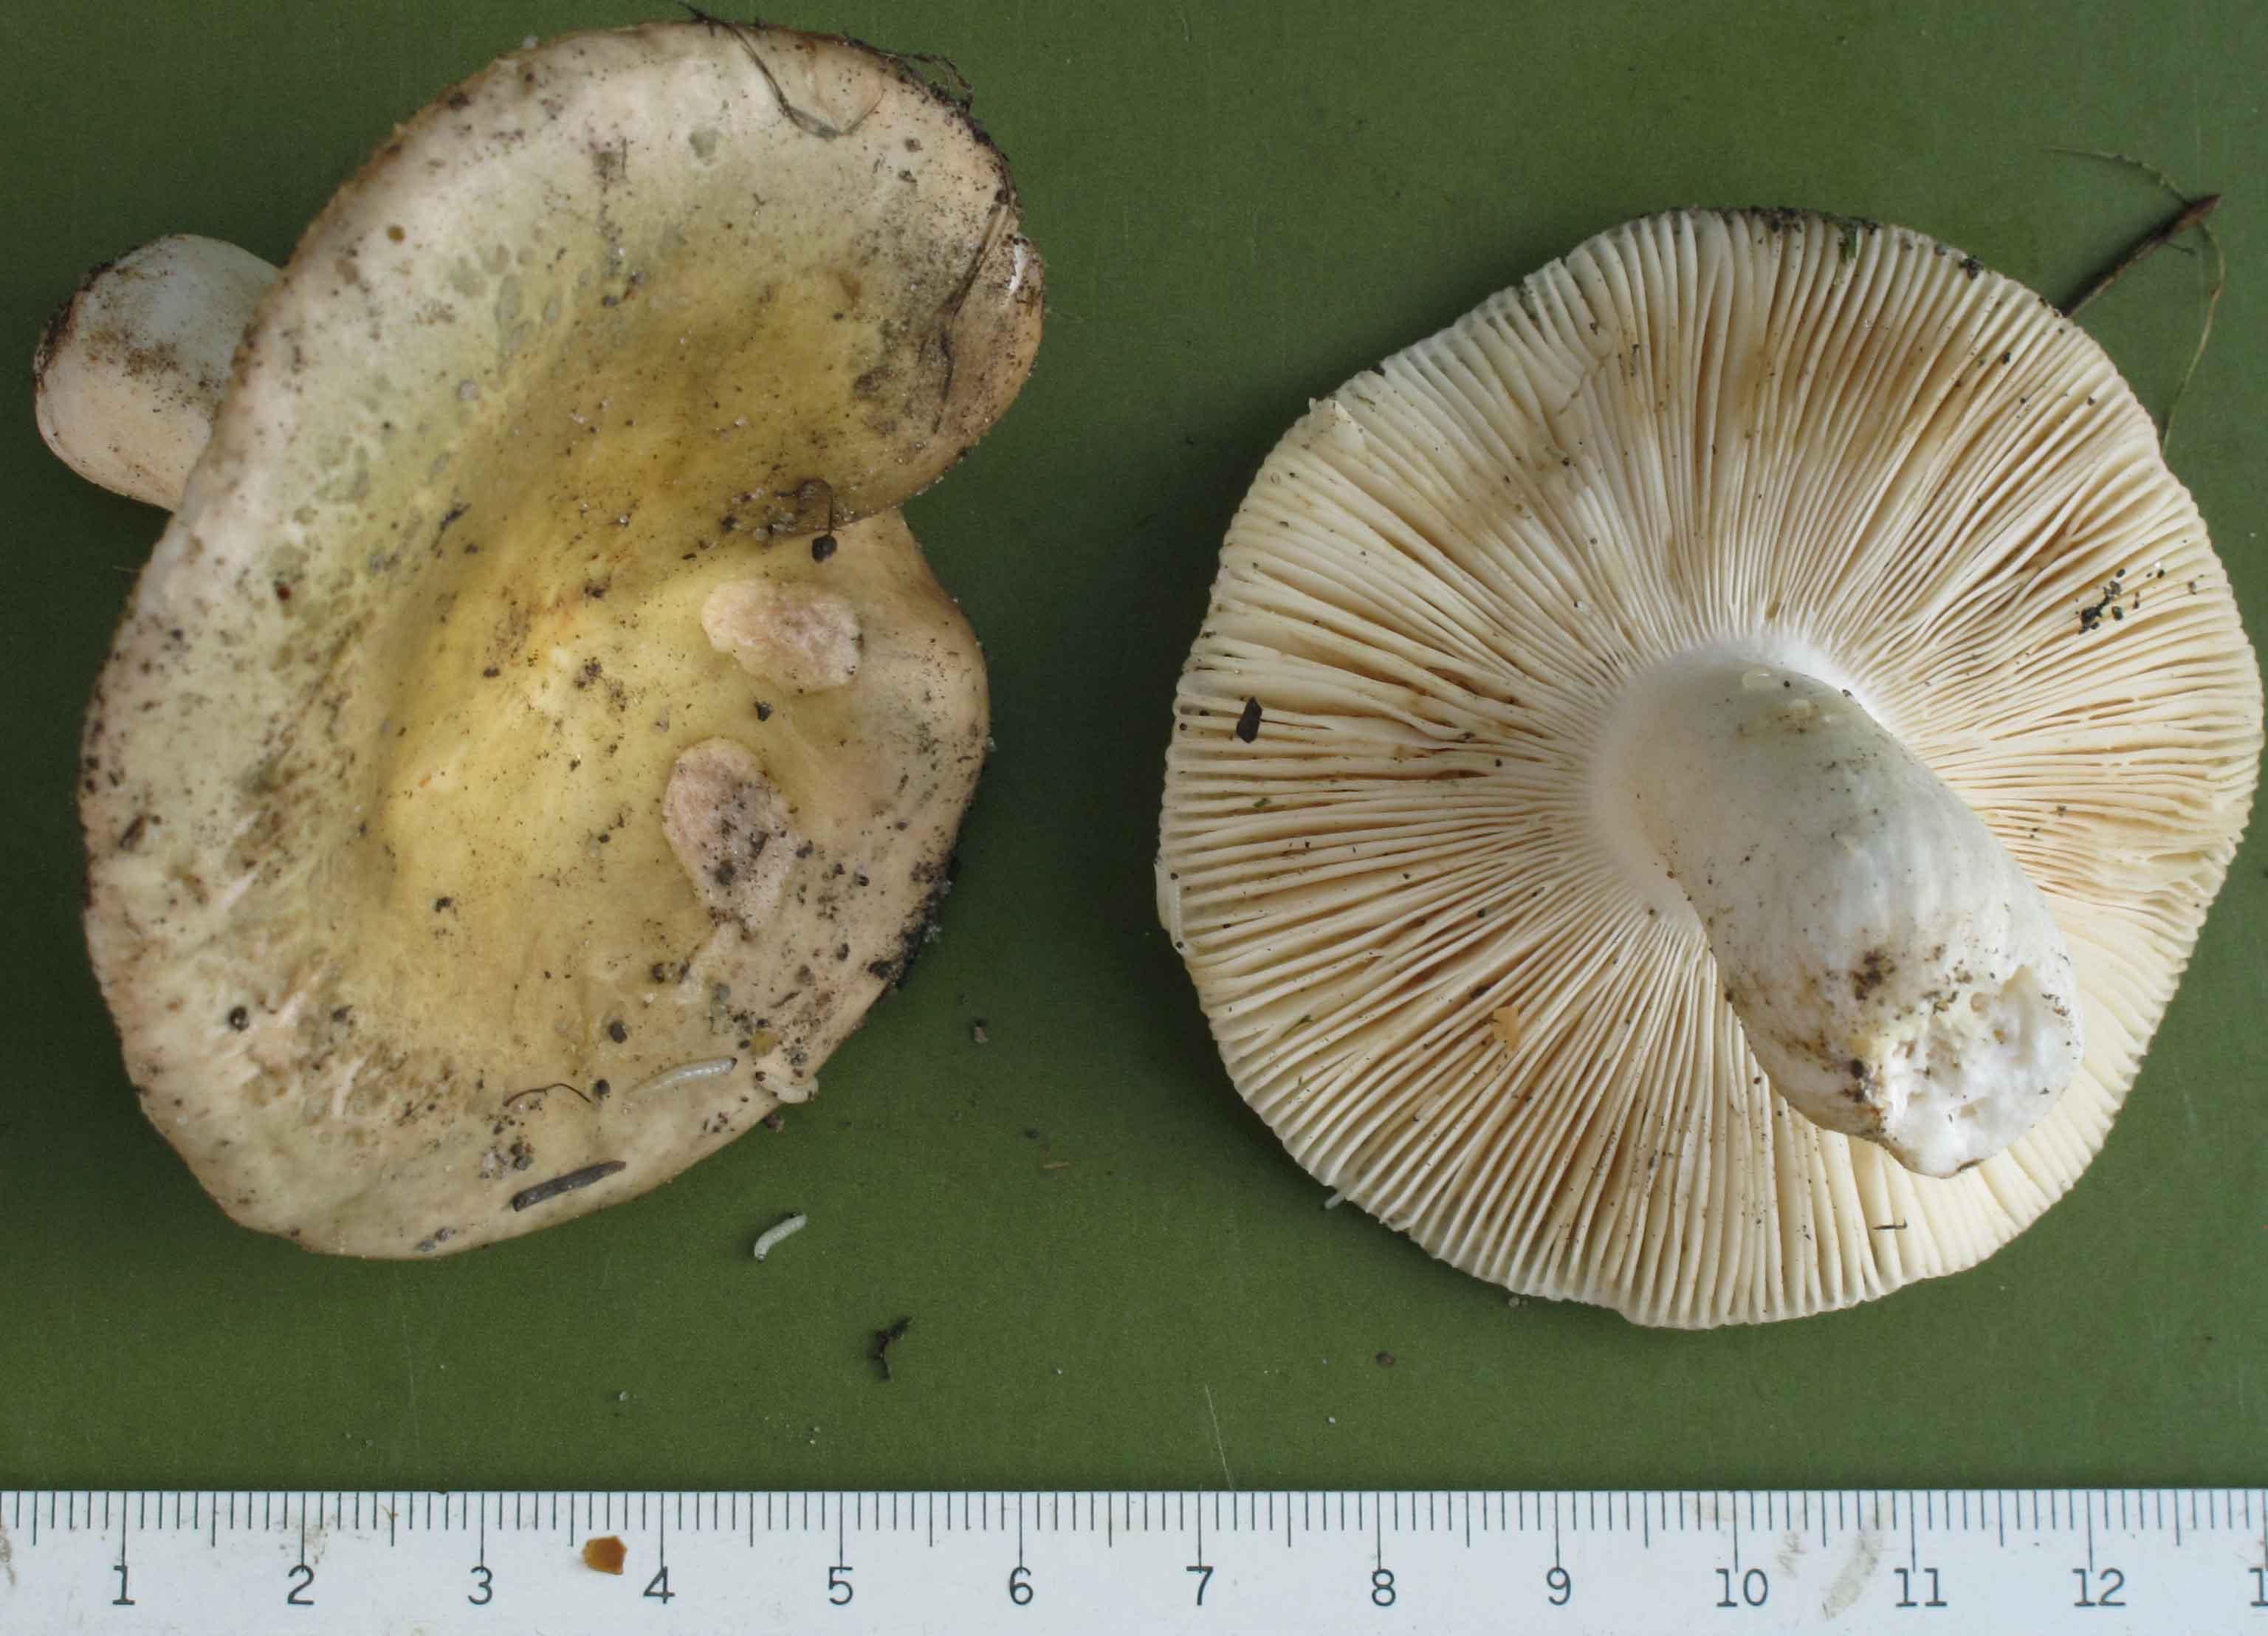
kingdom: Fungi
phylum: Basidiomycota
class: Agaricomycetes
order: Russulales
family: Russulaceae
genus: Russula
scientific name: Russula heterophylla
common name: gaffelbladet skørhat
